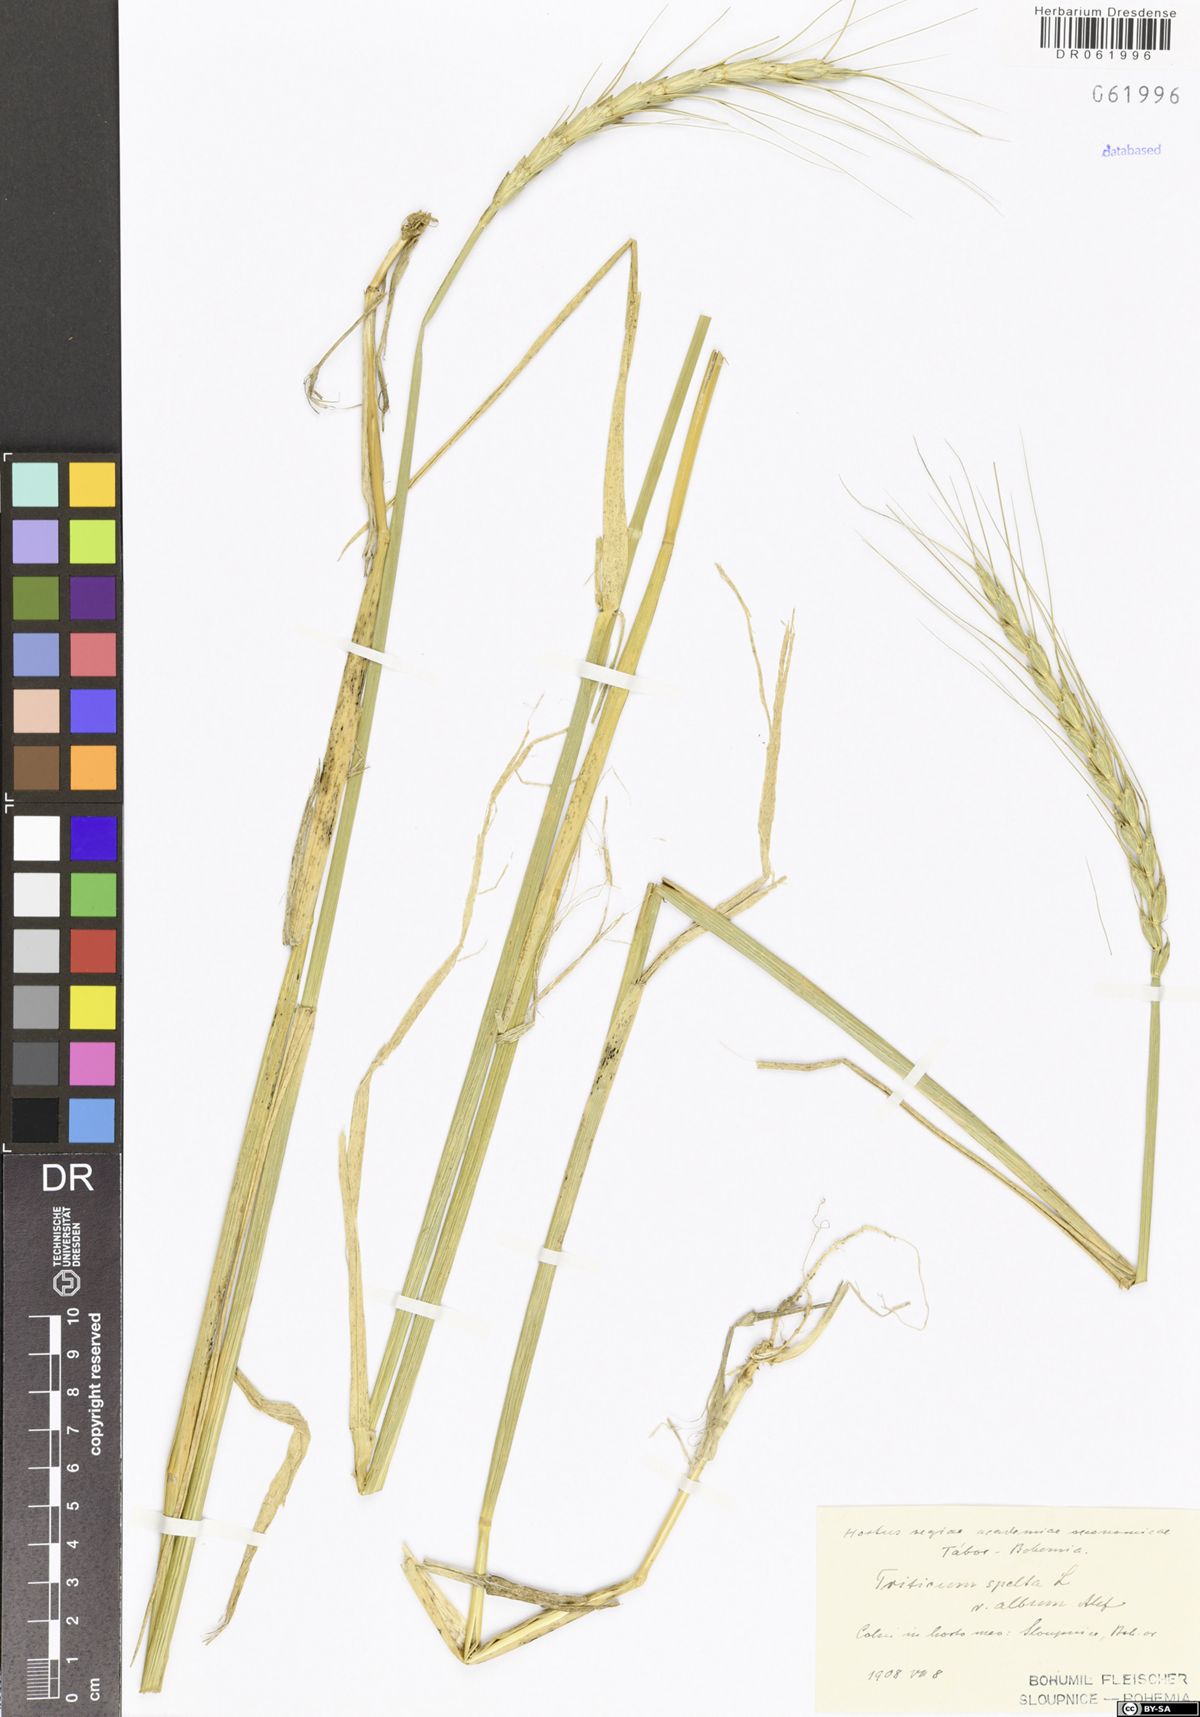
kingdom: Plantae
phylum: Tracheophyta
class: Liliopsida
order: Poales
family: Poaceae
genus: Triticum
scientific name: Triticum aestivum
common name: Common wheat
